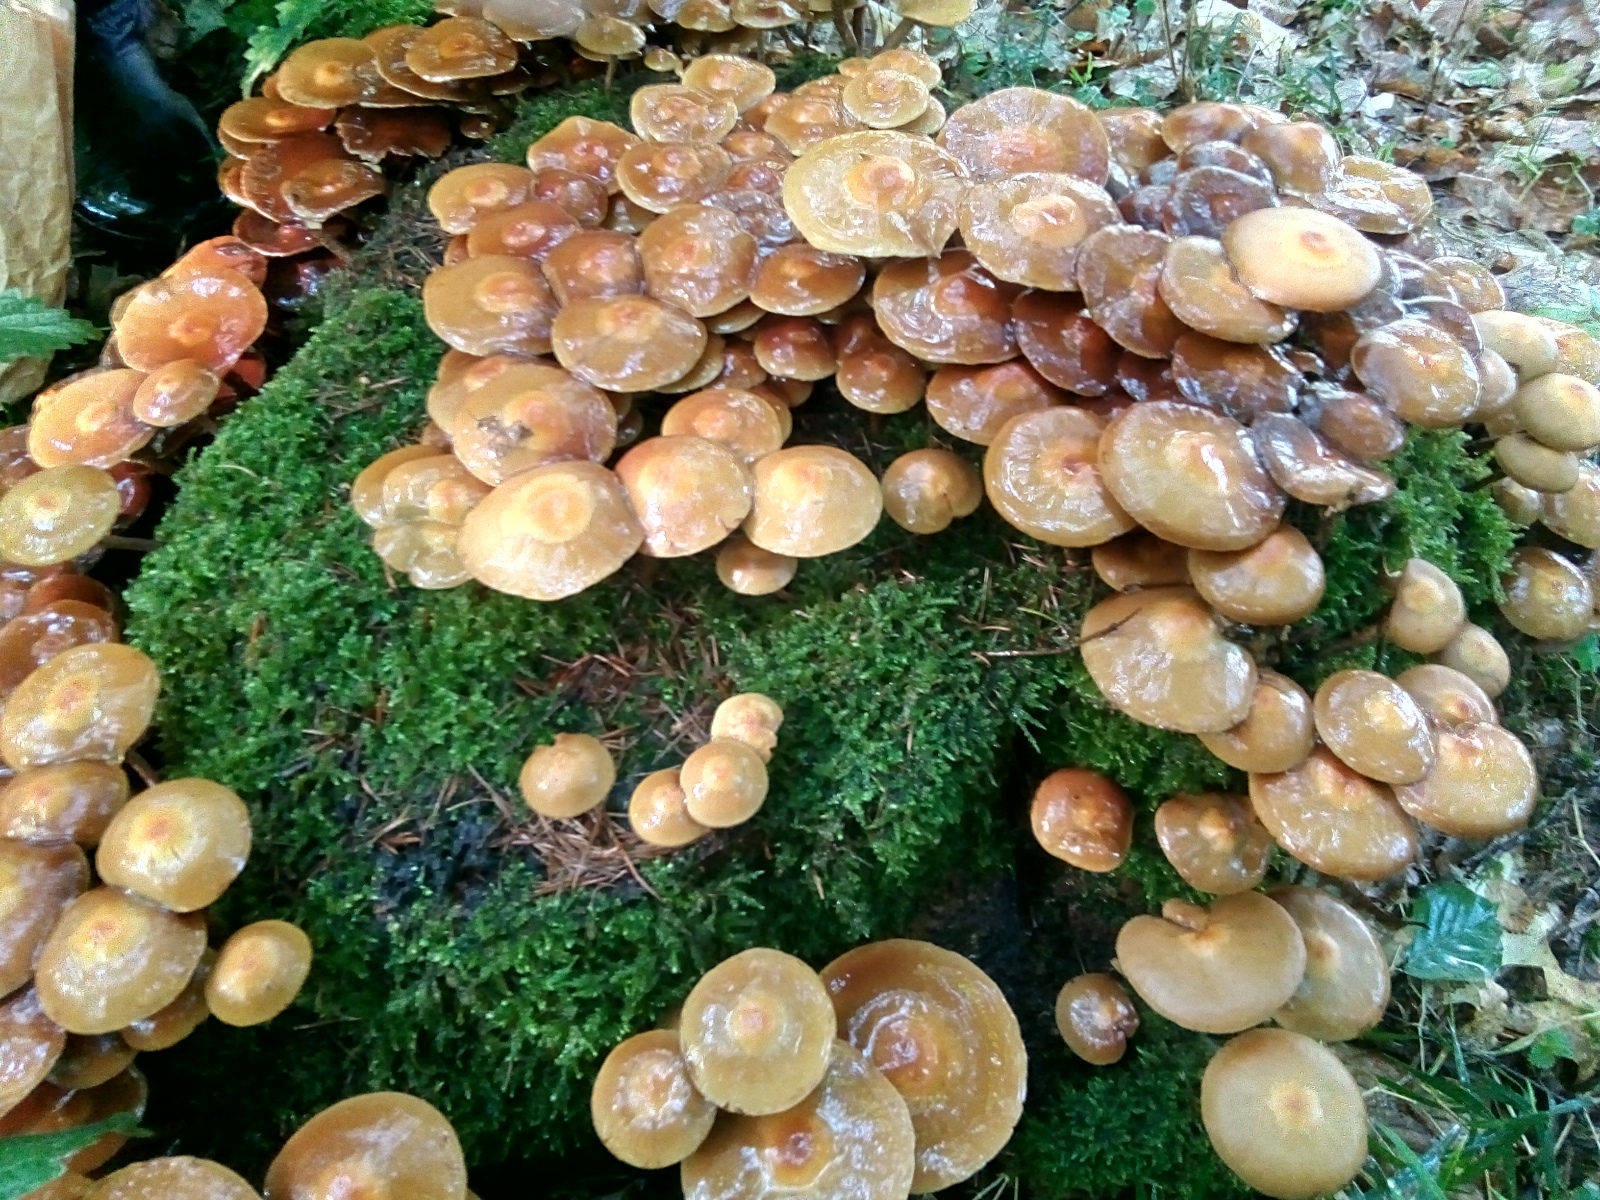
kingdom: Fungi
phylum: Basidiomycota
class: Agaricomycetes
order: Agaricales
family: Strophariaceae
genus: Kuehneromyces
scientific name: Kuehneromyces mutabilis
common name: foranderlig skælhat
